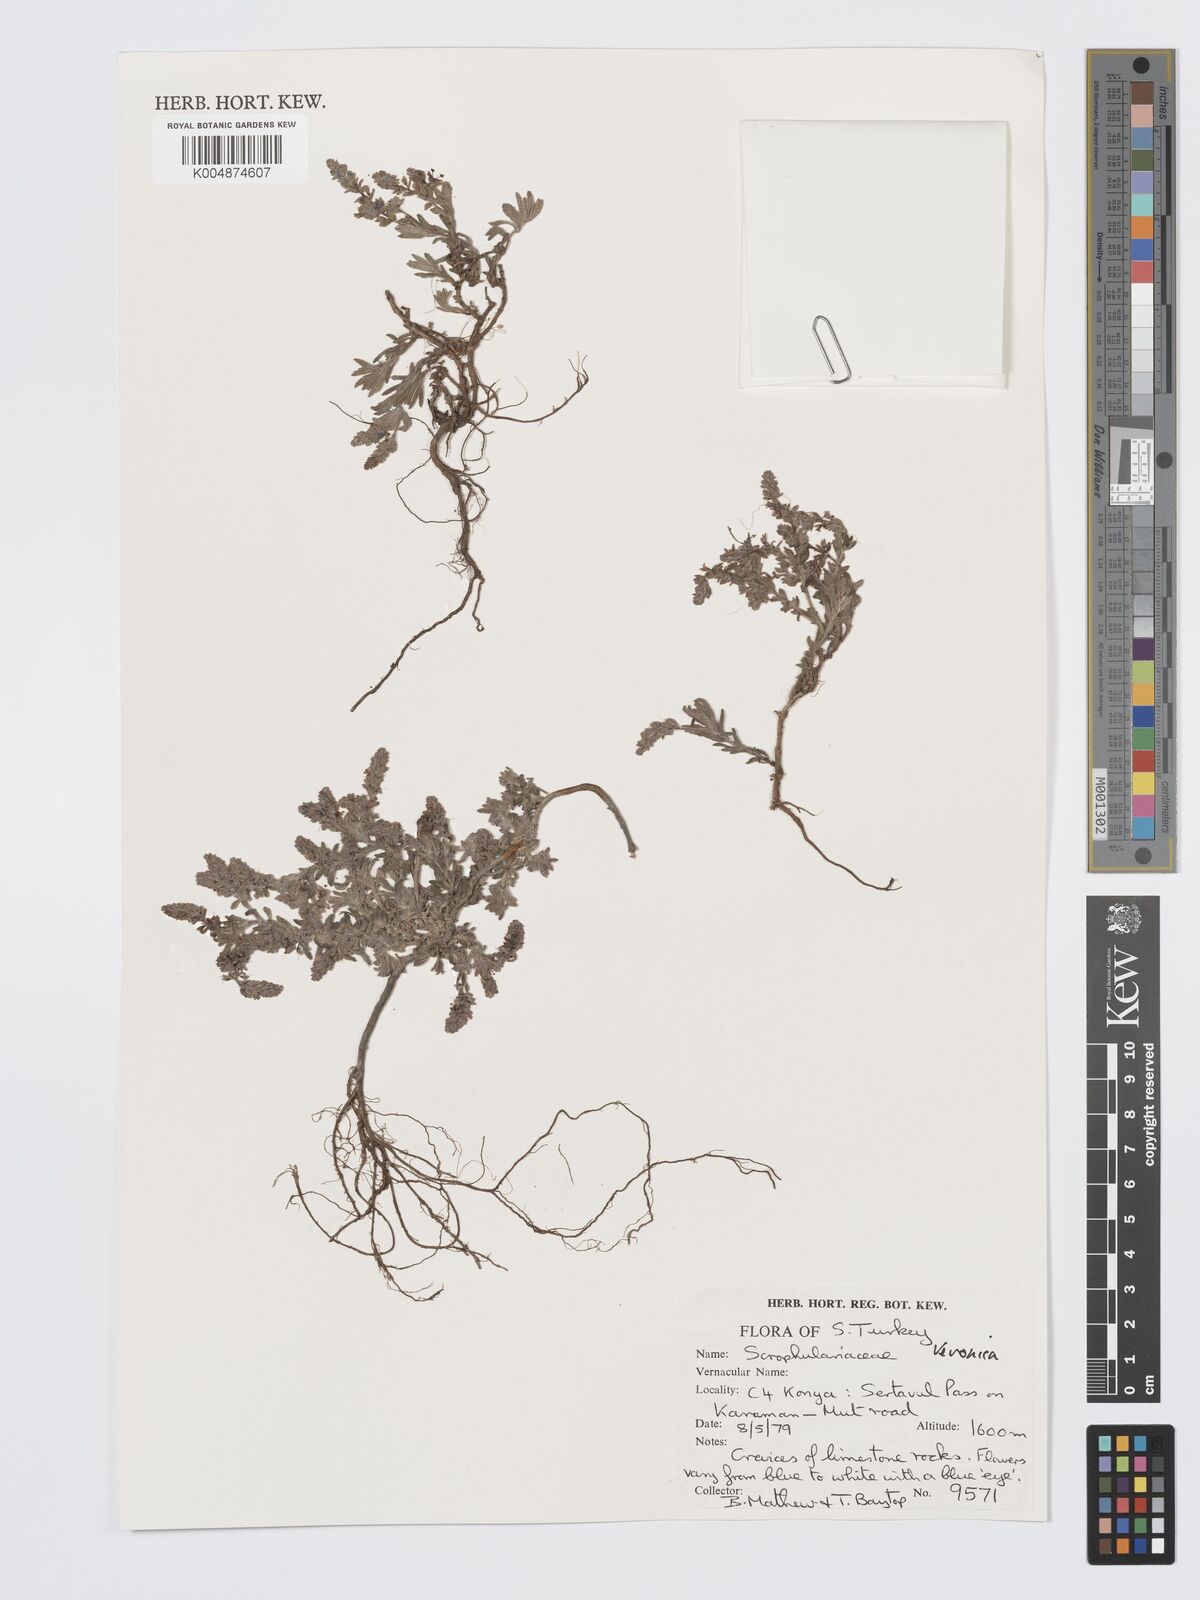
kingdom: Plantae
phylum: Tracheophyta
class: Magnoliopsida
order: Lamiales
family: Plantaginaceae
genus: Veronica
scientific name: Veronica
